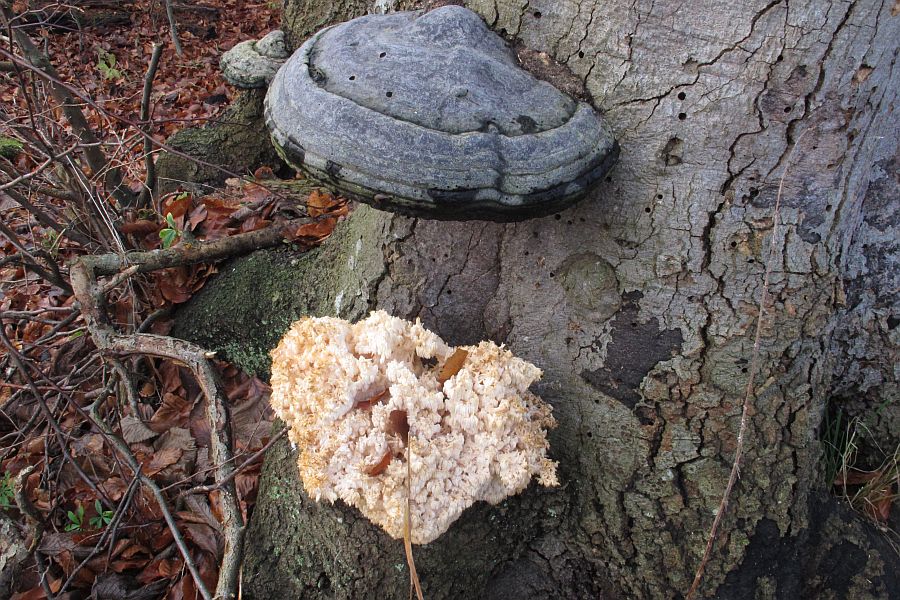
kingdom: Fungi
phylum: Basidiomycota
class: Agaricomycetes
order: Russulales
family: Hericiaceae
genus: Hericium
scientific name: Hericium coralloides
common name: koralpigsvamp
